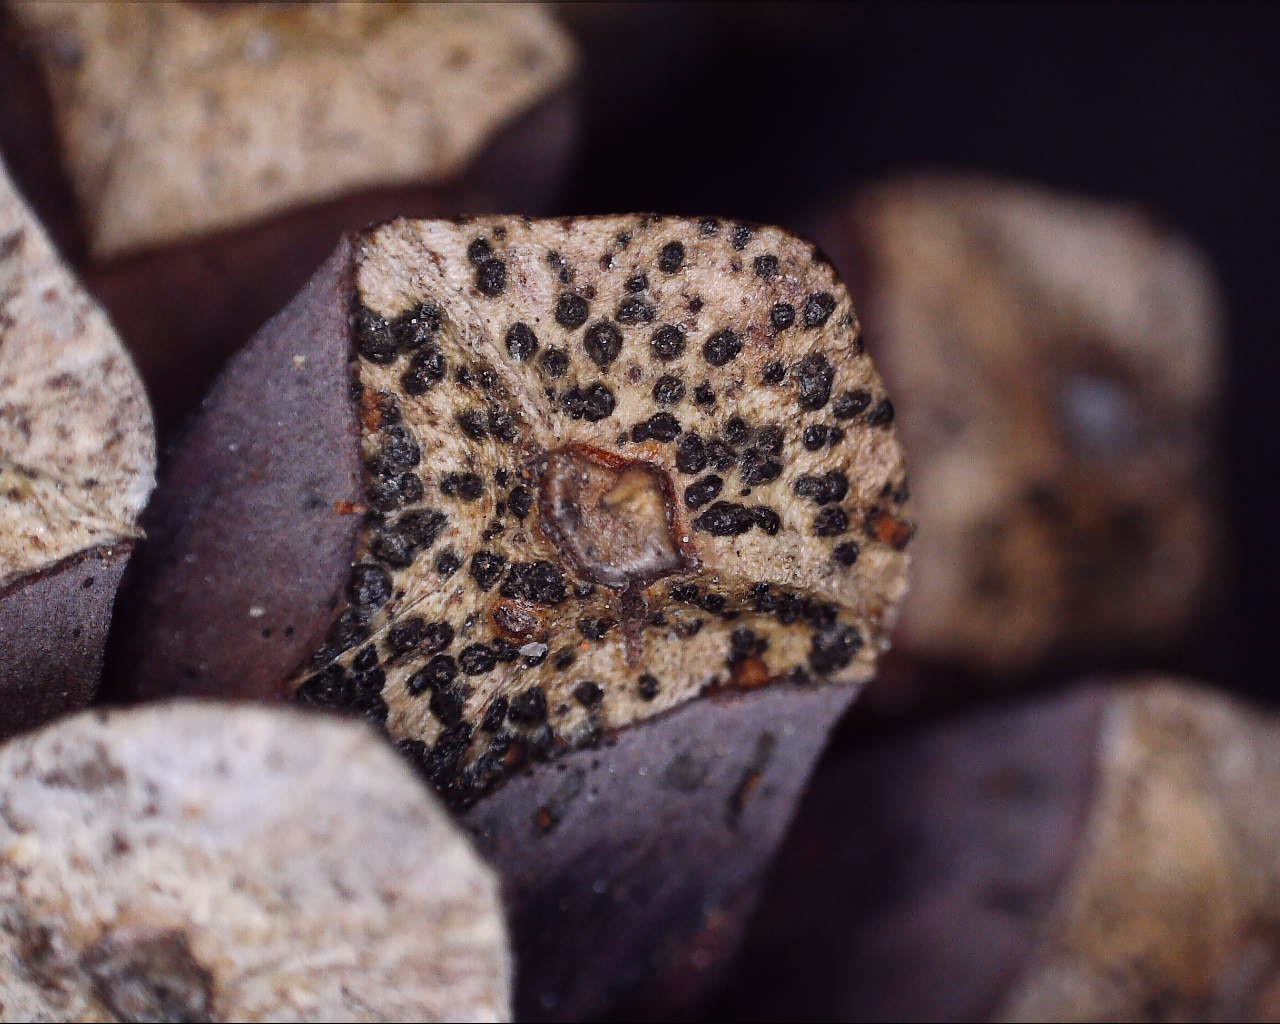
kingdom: Fungi
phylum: Ascomycota
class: Sordariomycetes
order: Diaporthales
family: Gnomoniaceae
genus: Sirococcus
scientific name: Sirococcus conigenus
